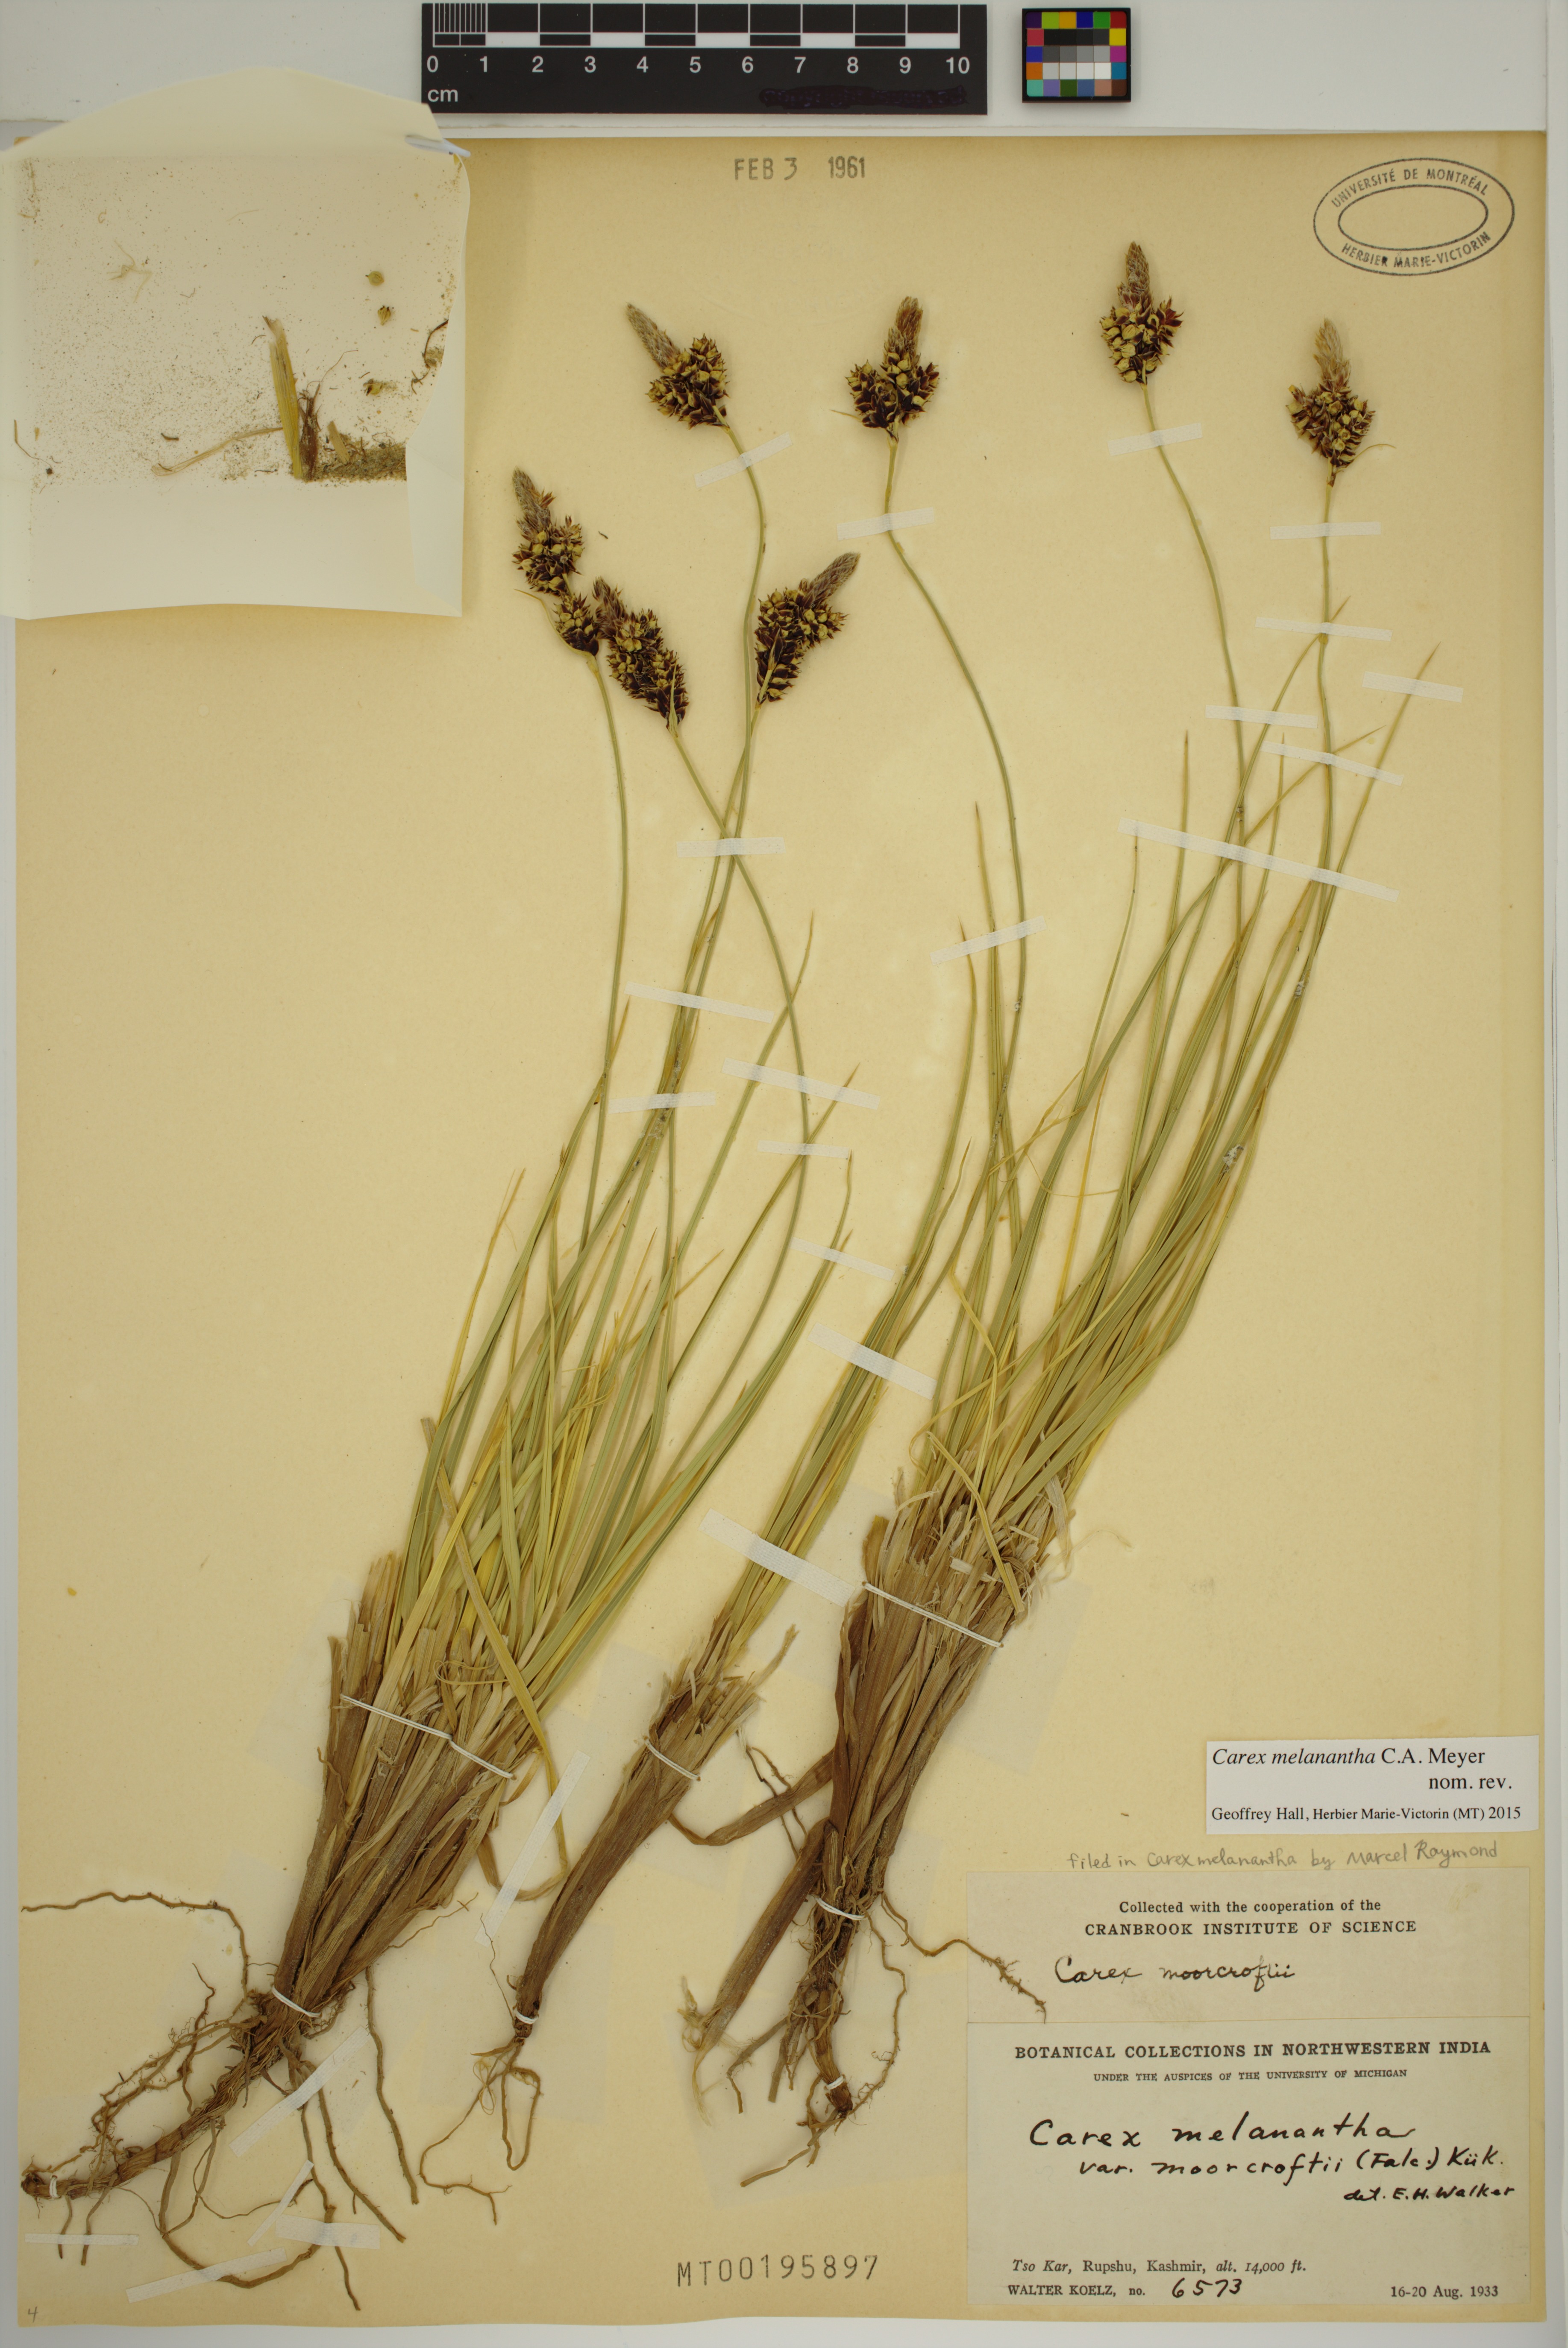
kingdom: Plantae
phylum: Tracheophyta
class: Liliopsida
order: Poales
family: Cyperaceae
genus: Carex
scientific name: Carex melanantha
